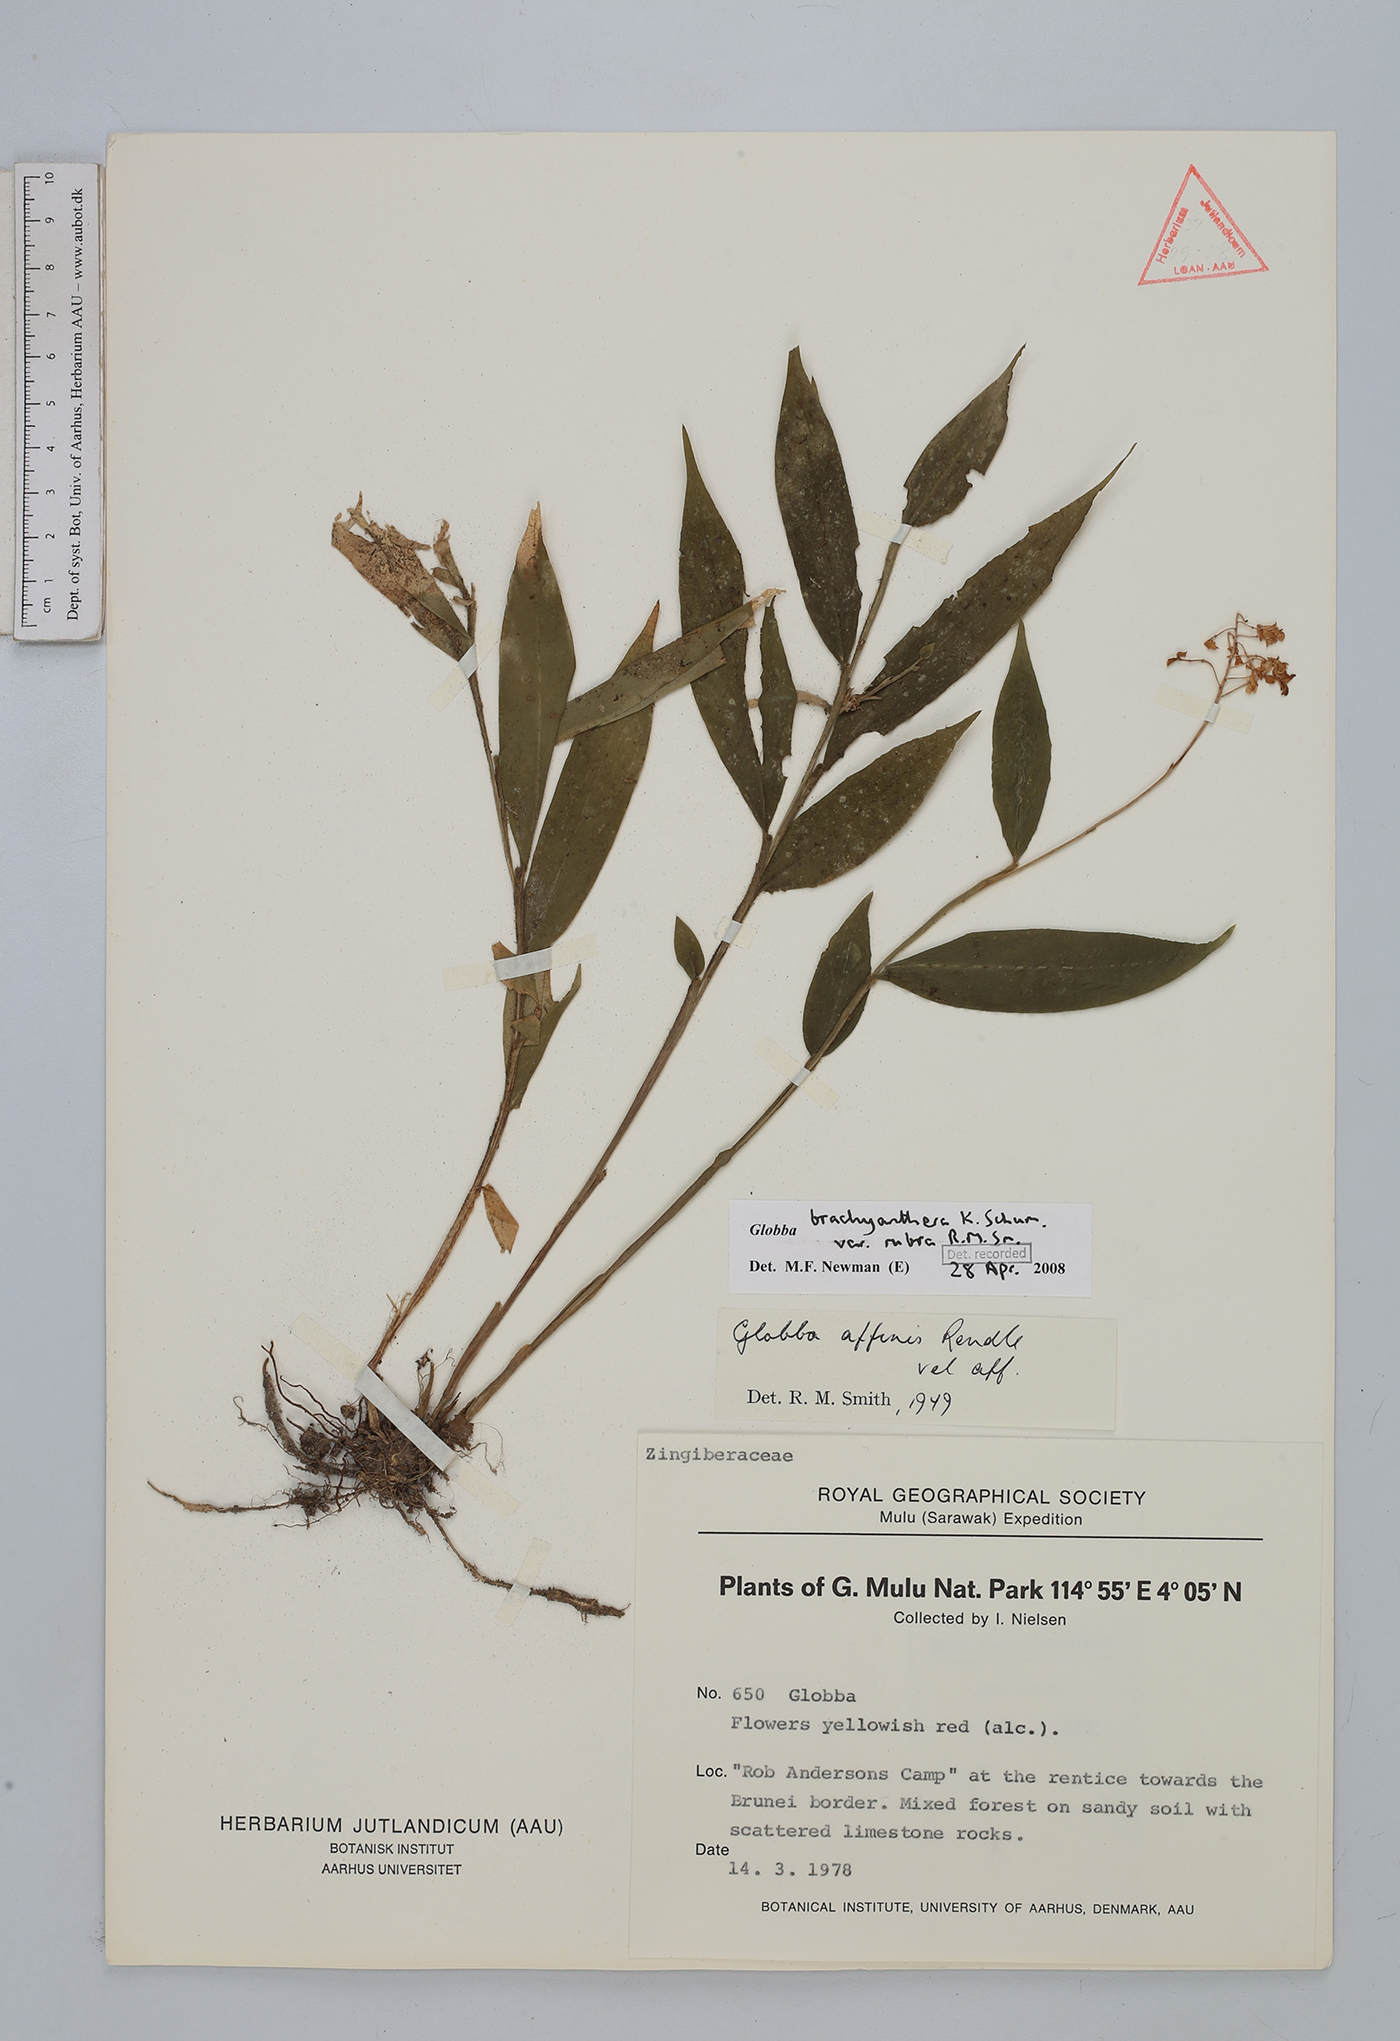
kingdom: Plantae
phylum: Tracheophyta
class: Liliopsida
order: Zingiberales
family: Zingiberaceae
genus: Globba
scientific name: Globba brachyanthera
